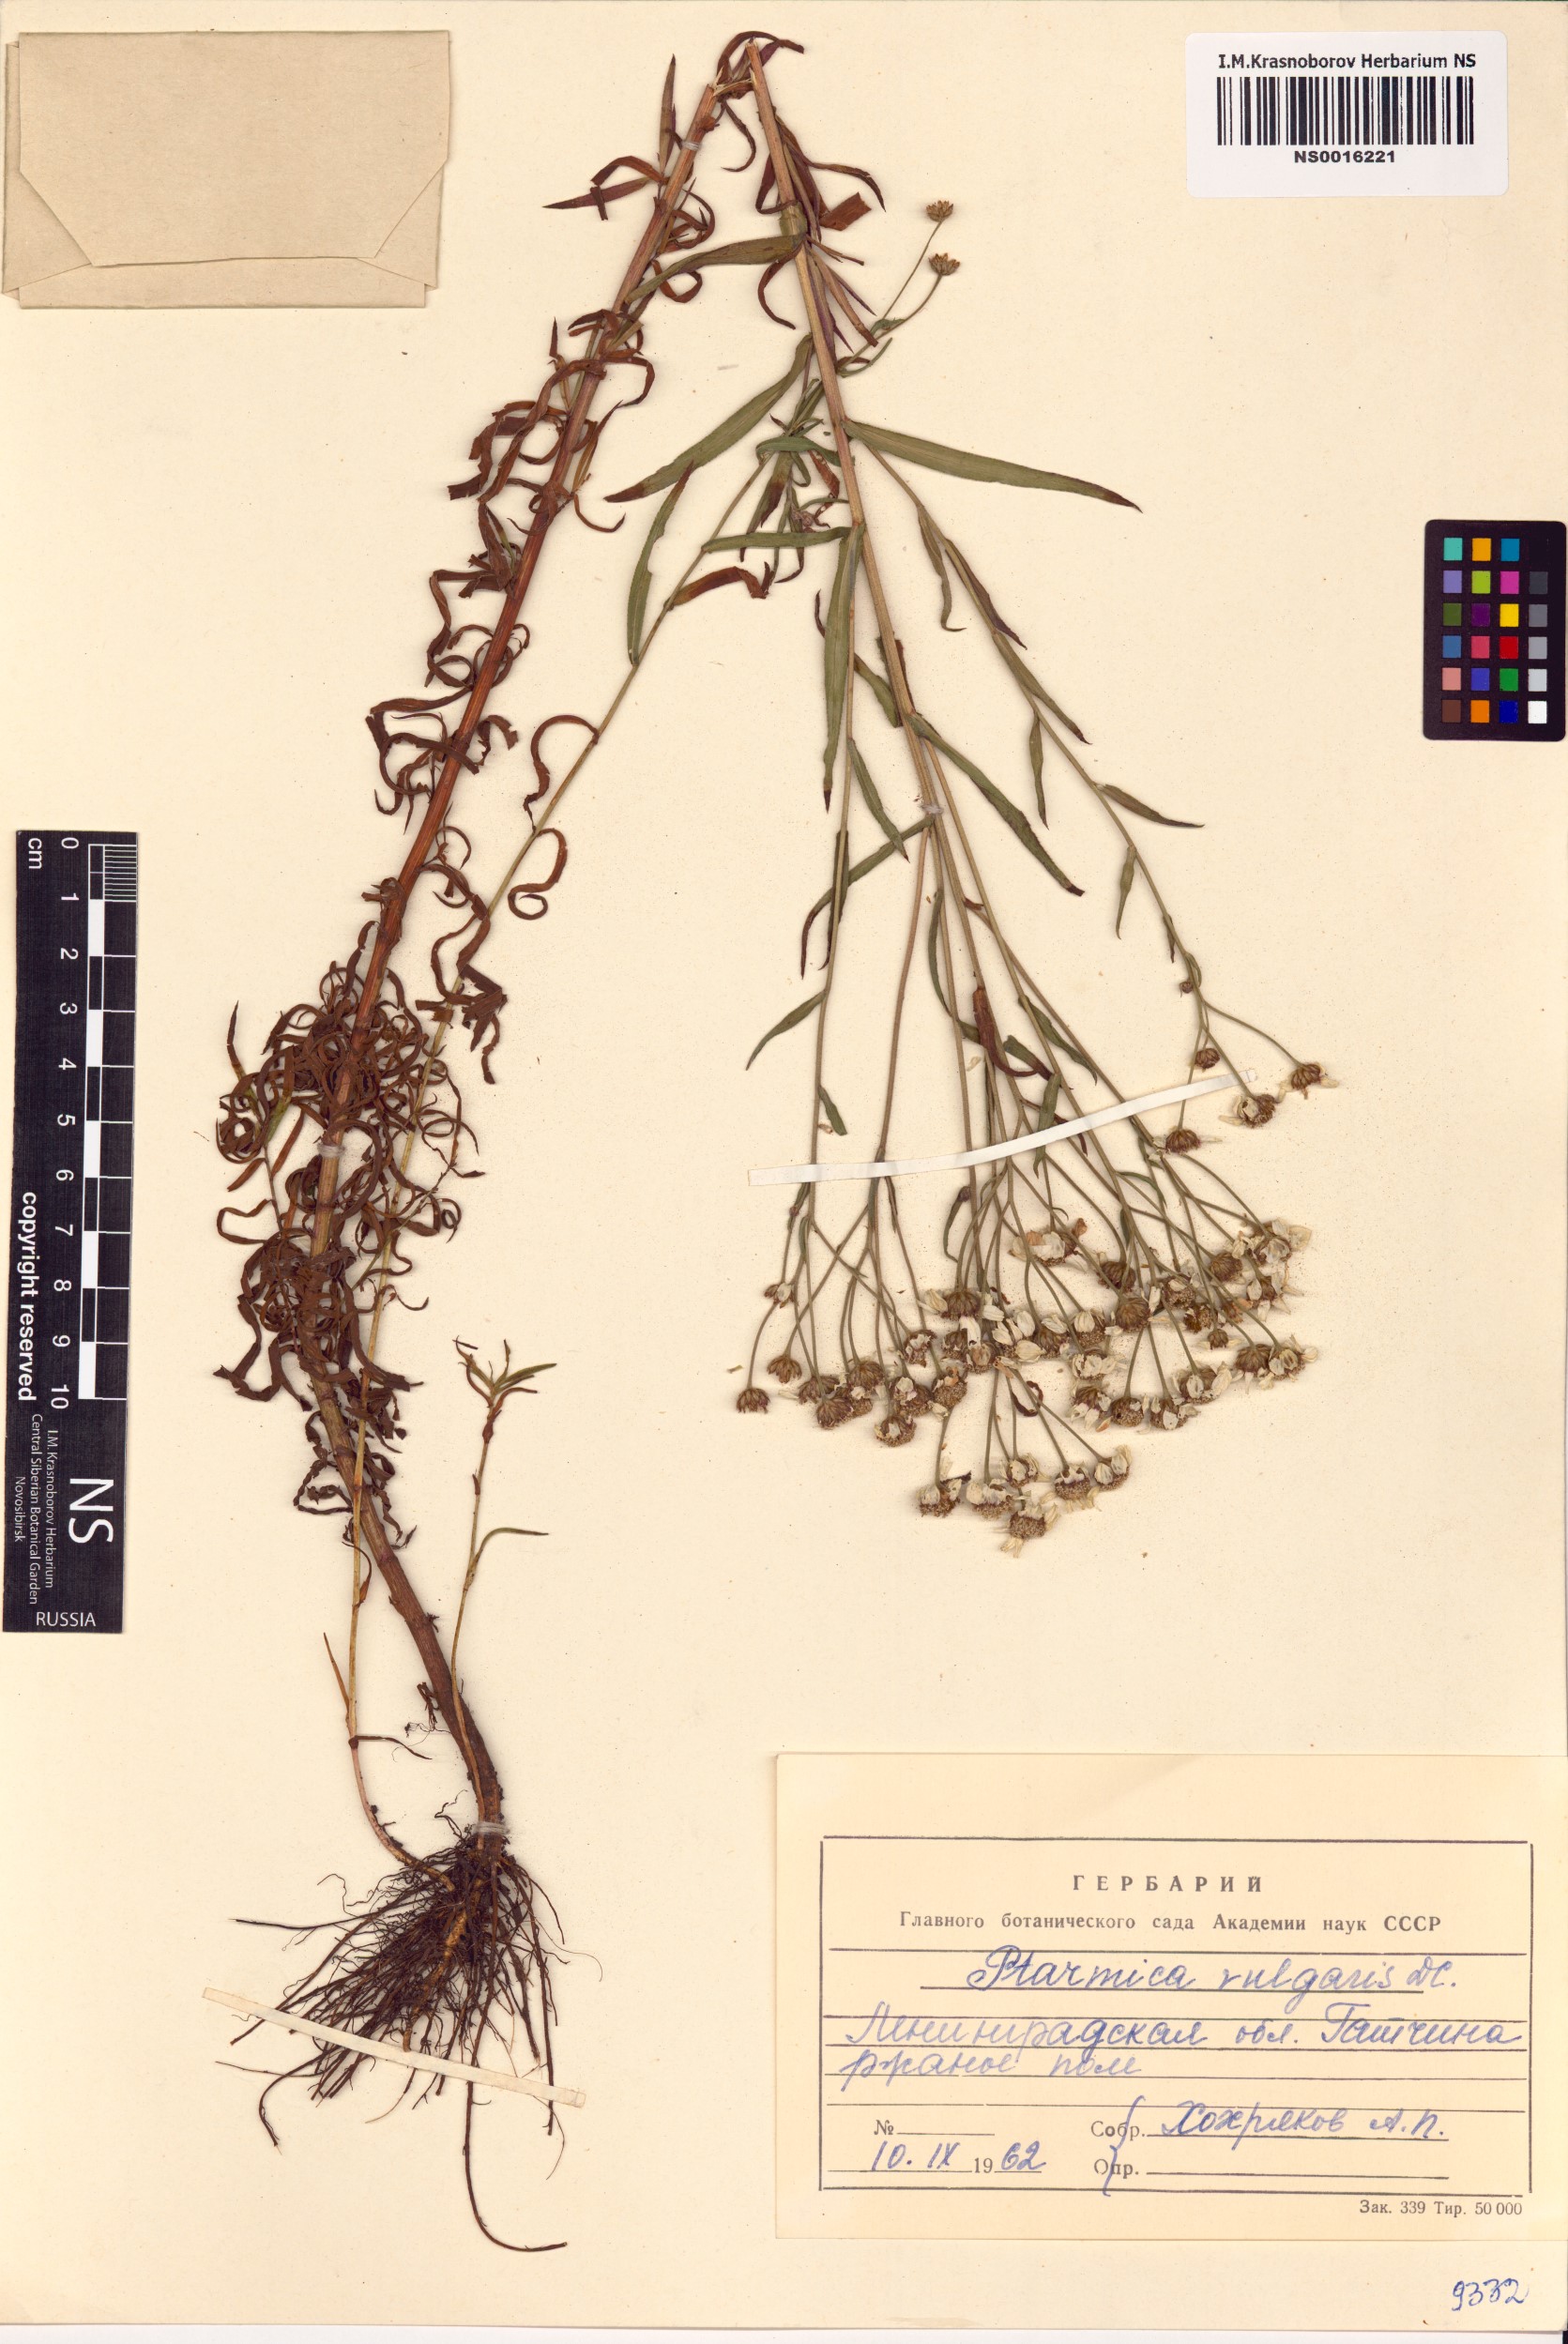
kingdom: Plantae
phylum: Tracheophyta
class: Magnoliopsida
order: Asterales
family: Asteraceae
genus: Achillea
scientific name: Achillea ptarmica
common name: Sneezeweed
